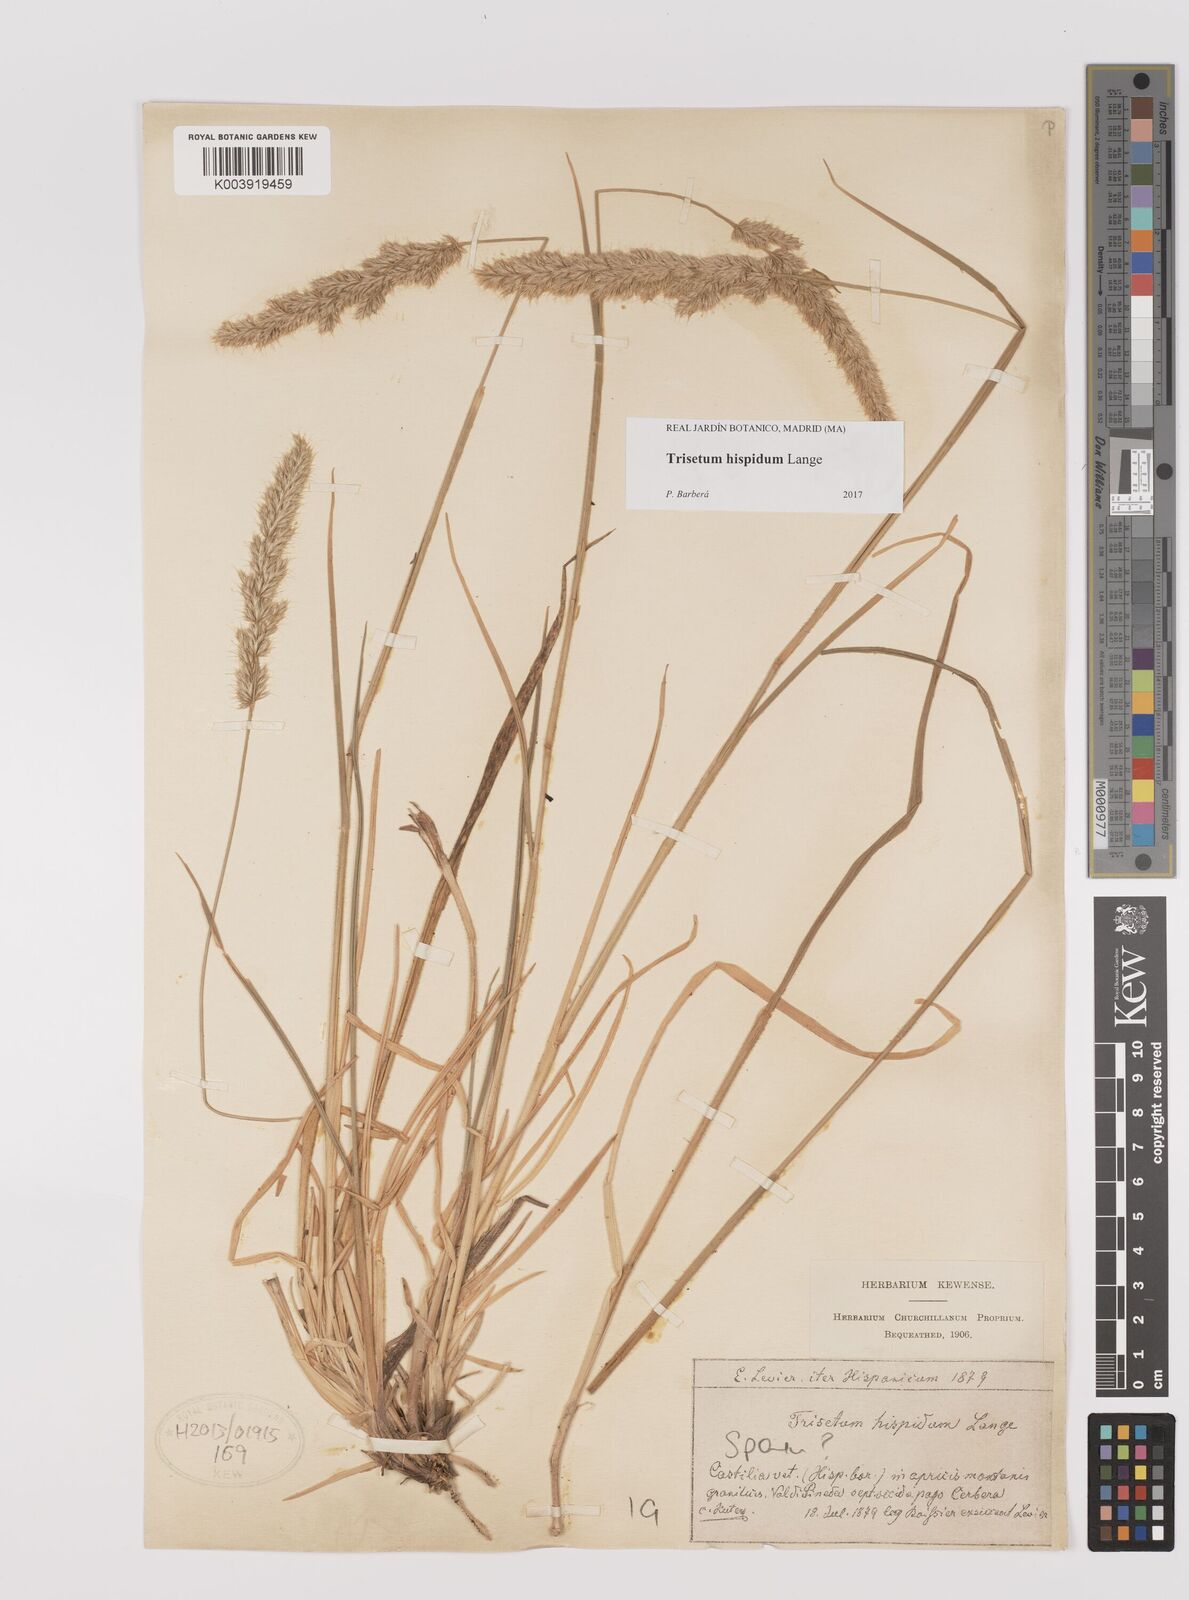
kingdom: Plantae
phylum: Tracheophyta
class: Liliopsida
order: Poales
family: Poaceae
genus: Koeleria
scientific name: Koeleria hispanica
